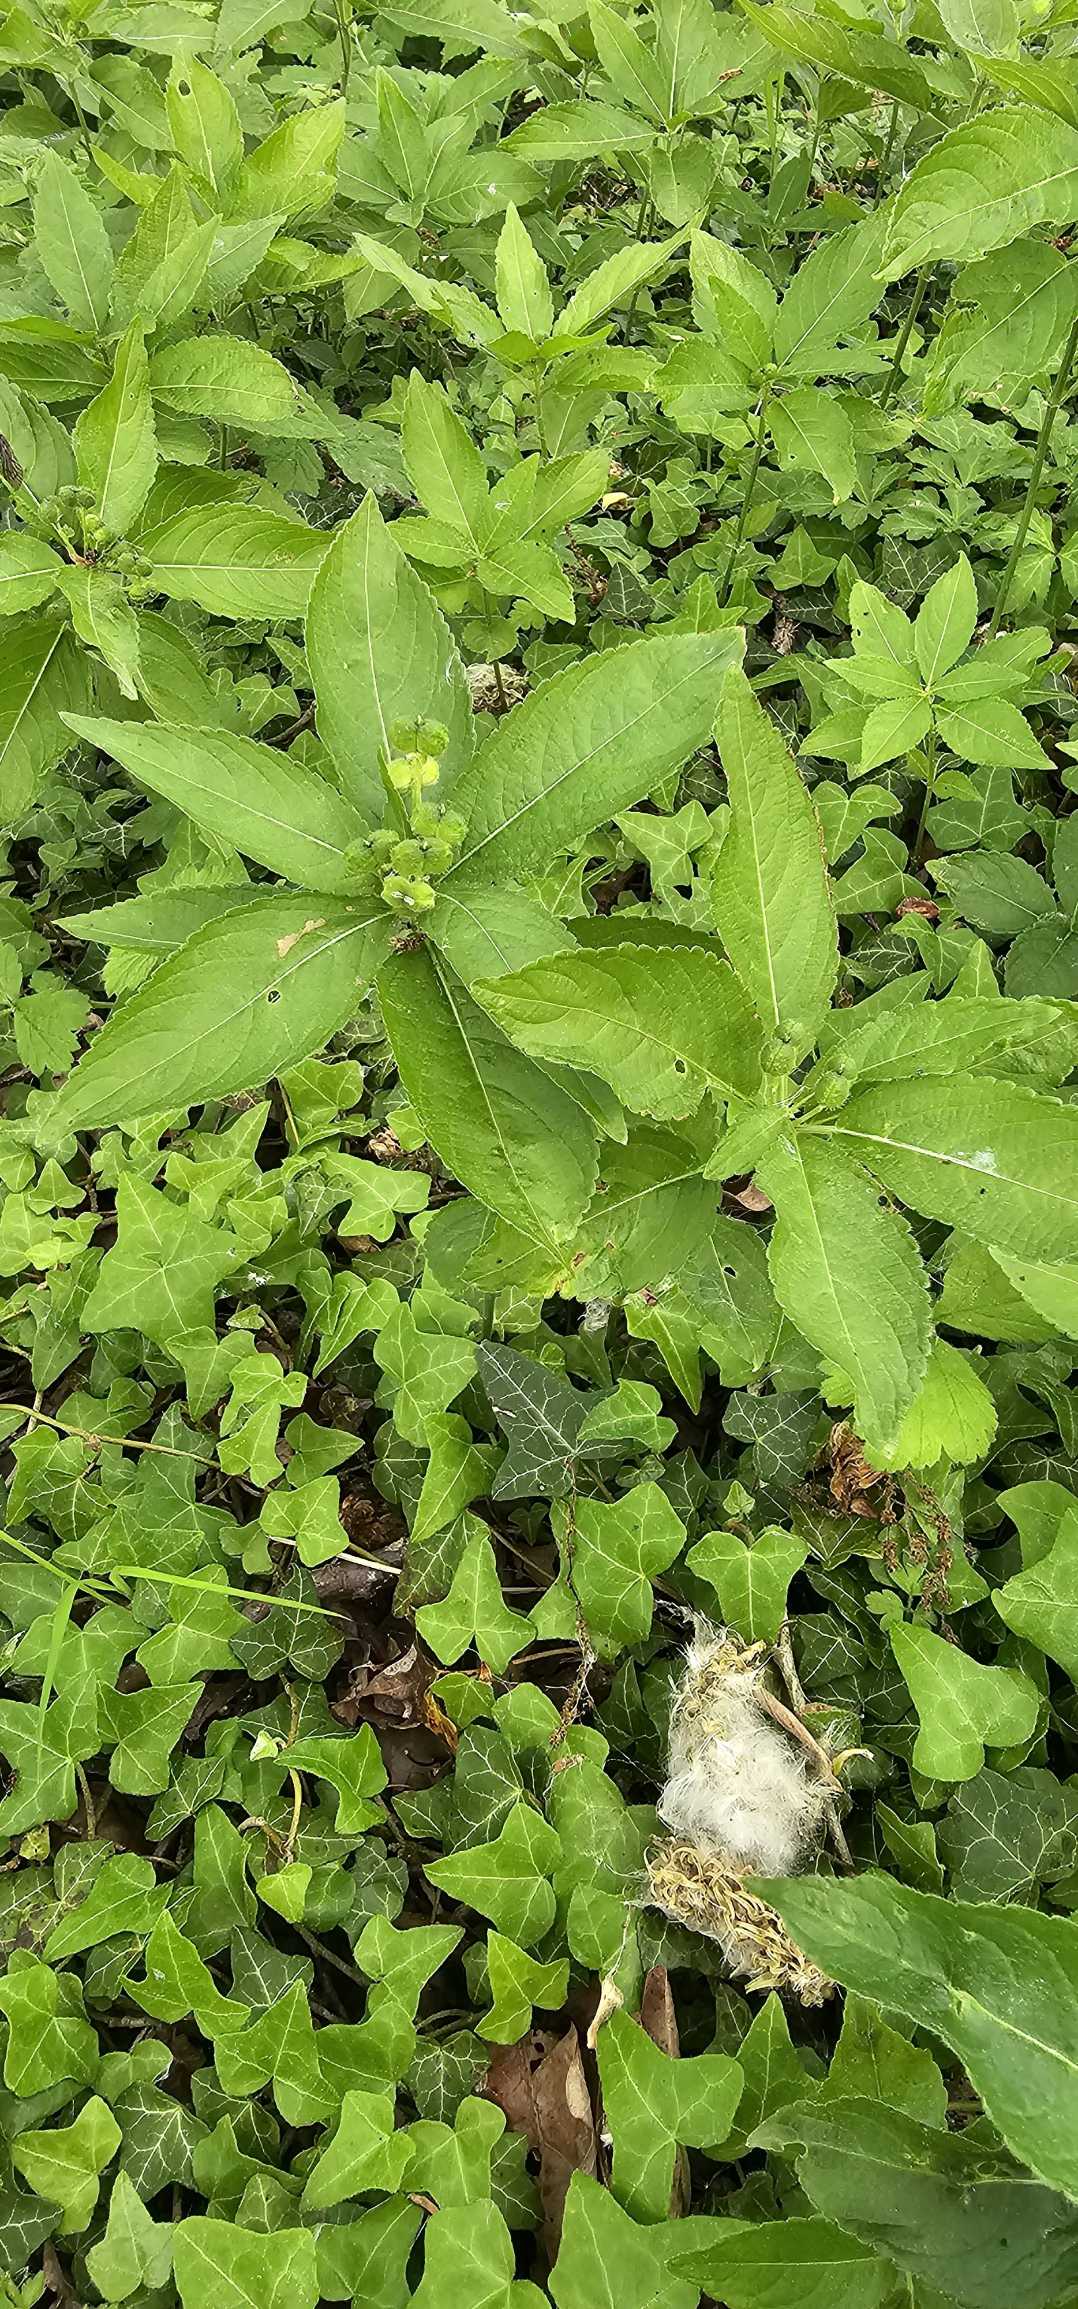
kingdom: Plantae
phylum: Tracheophyta
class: Magnoliopsida
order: Malpighiales
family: Euphorbiaceae
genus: Mercurialis
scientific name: Mercurialis perennis
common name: Almindelig bingelurt
